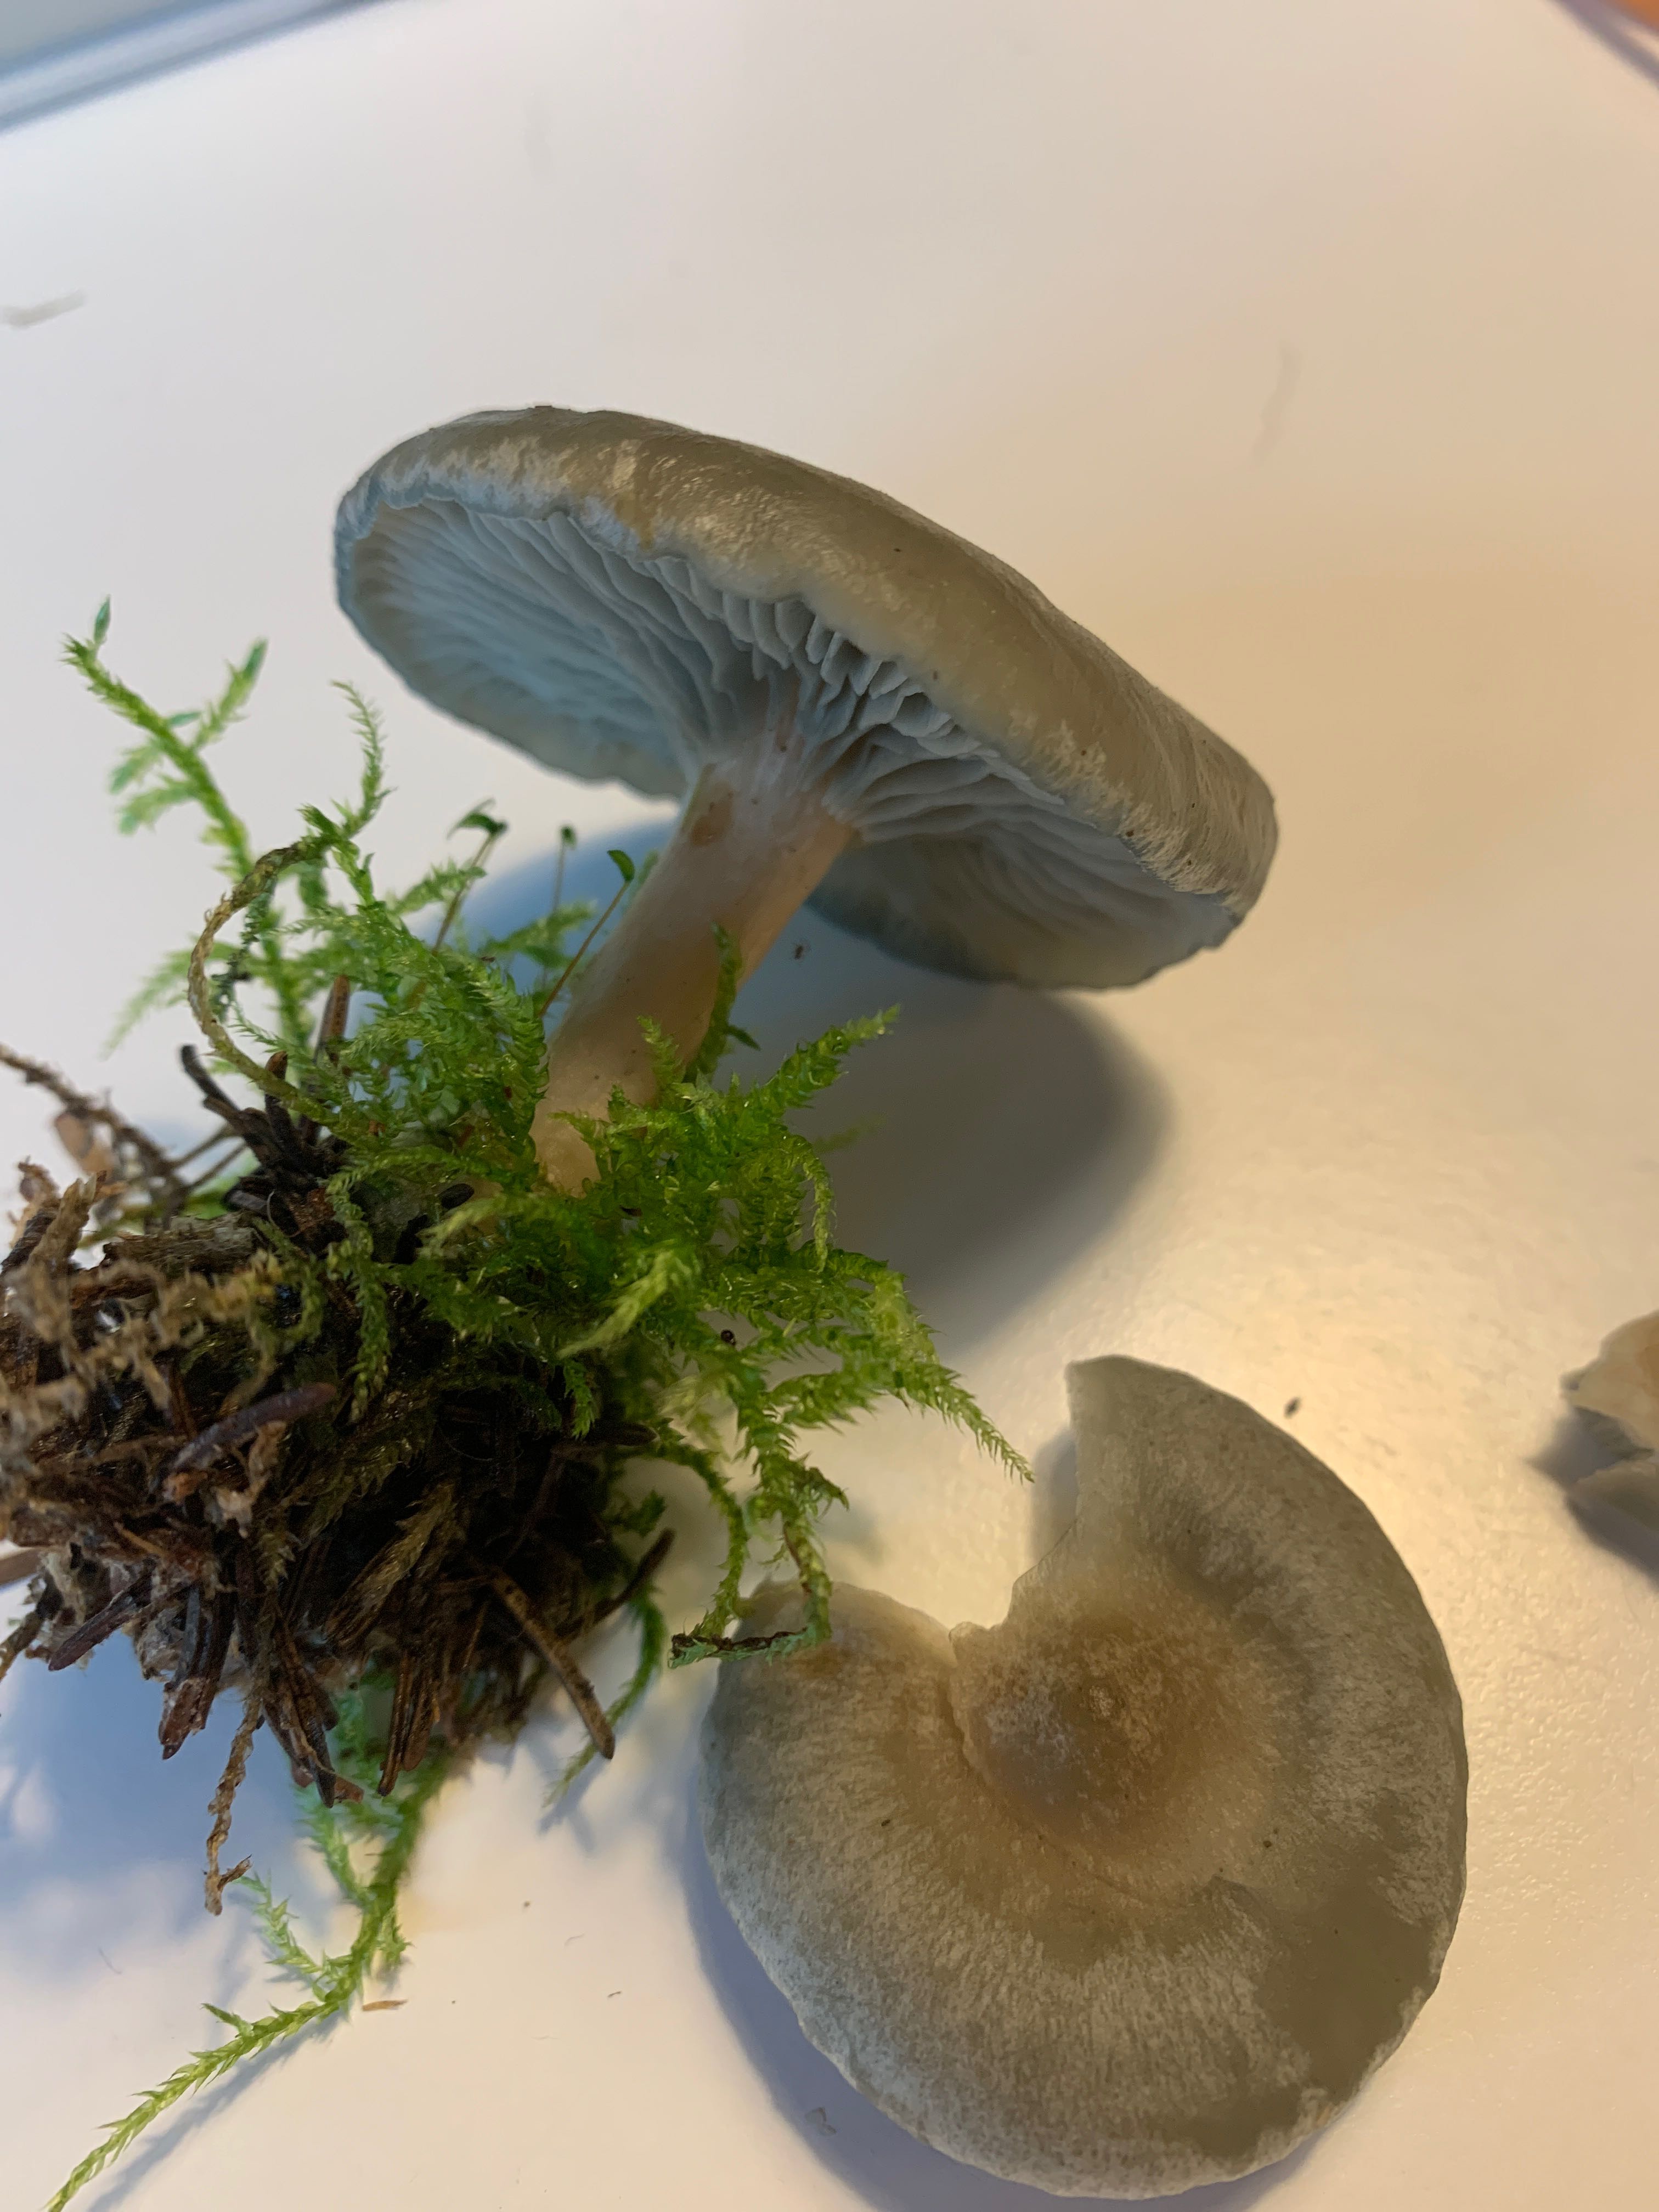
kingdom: Fungi
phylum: Basidiomycota
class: Agaricomycetes
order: Agaricales
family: Tricholomataceae
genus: Clitocybe
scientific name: Clitocybe odora
